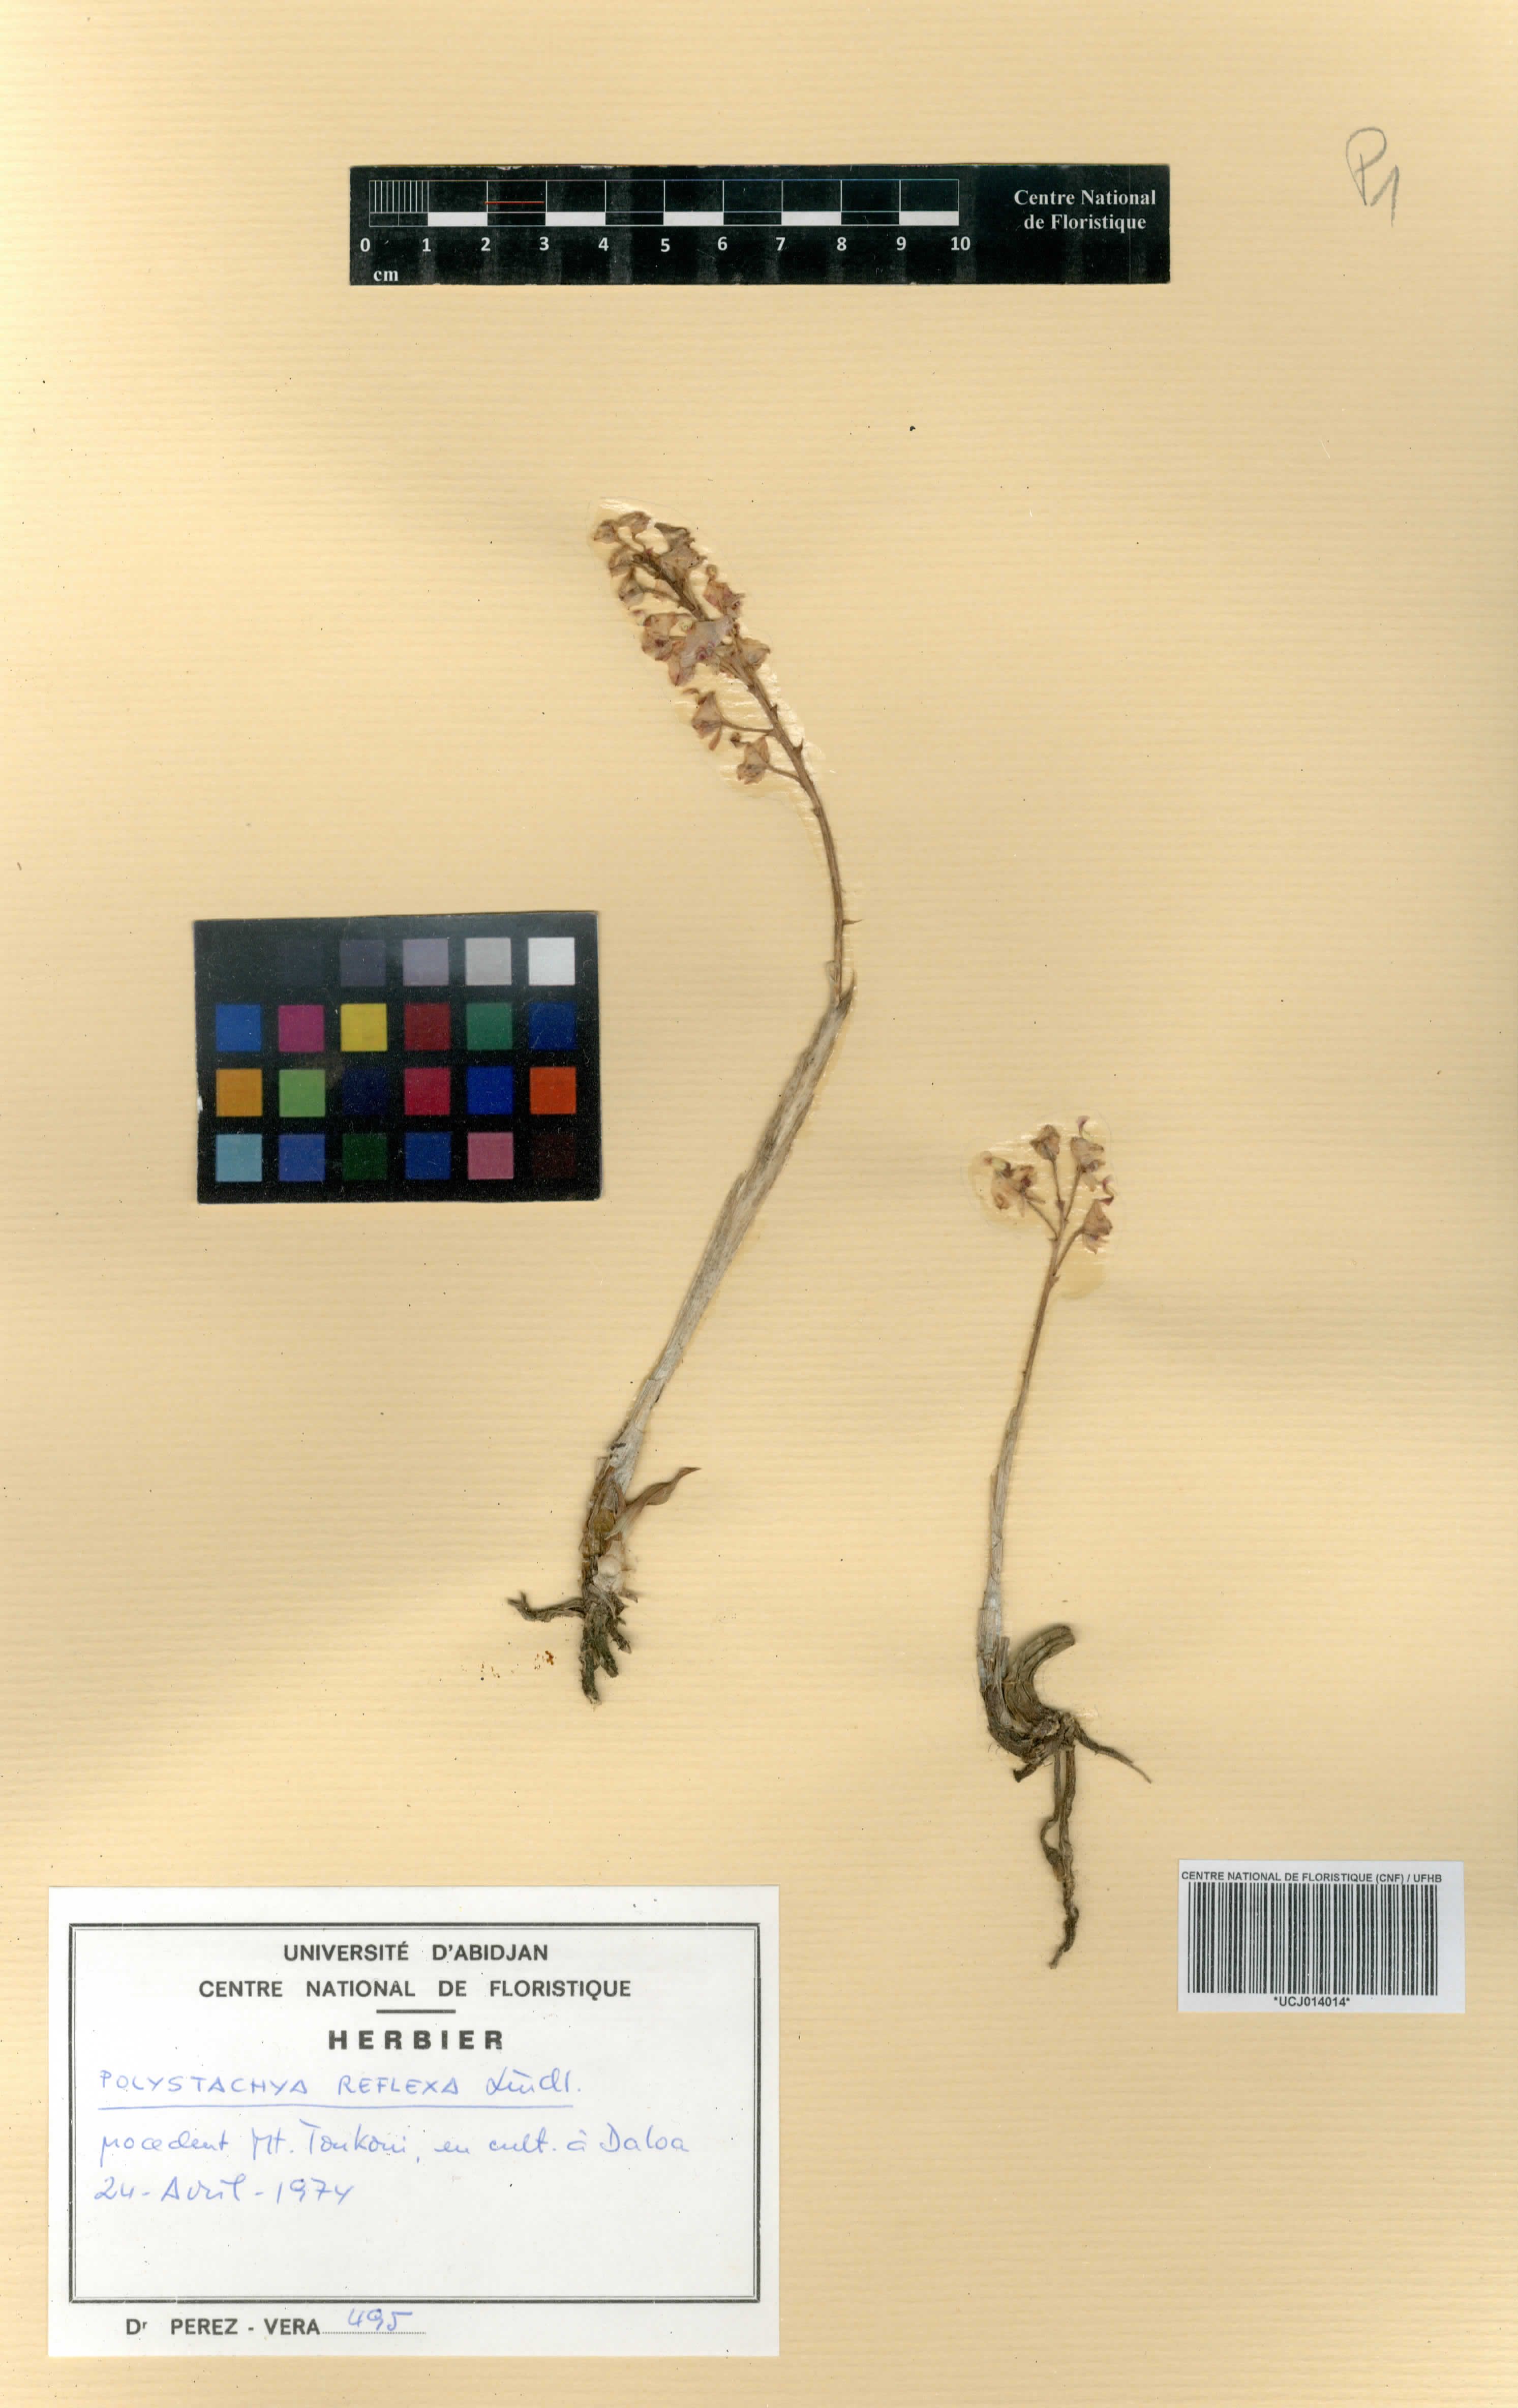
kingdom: Plantae
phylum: Tracheophyta
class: Liliopsida
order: Asparagales
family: Orchidaceae
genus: Polystachya
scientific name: Polystachya reflexa
